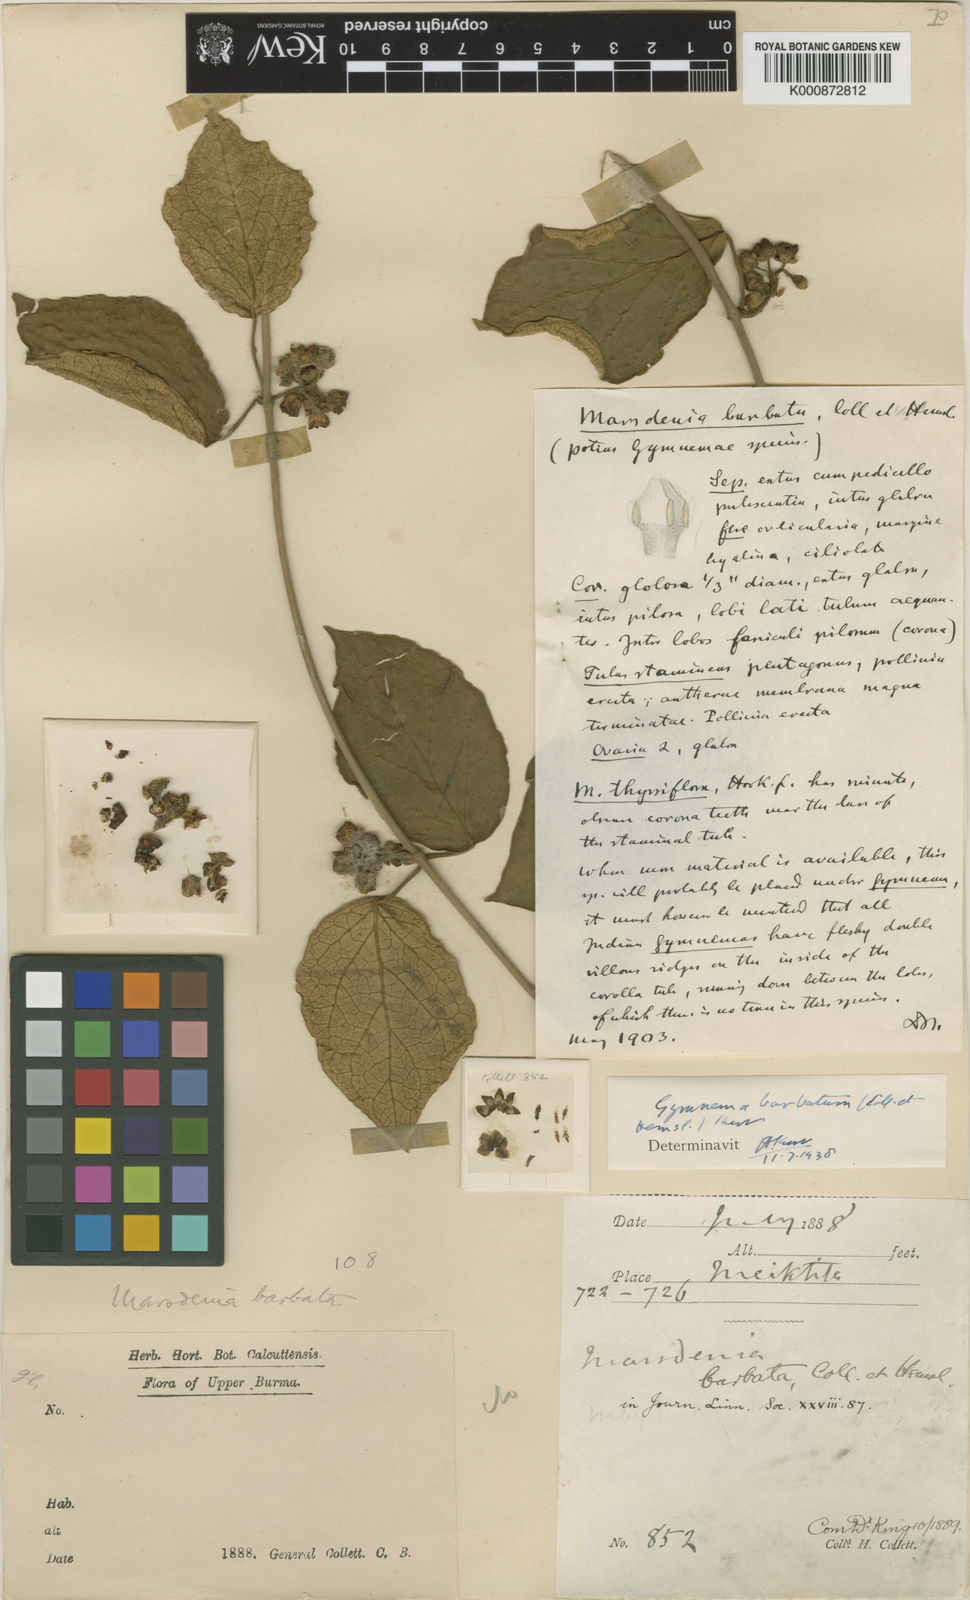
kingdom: Plantae
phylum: Tracheophyta
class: Magnoliopsida
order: Gentianales
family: Apocynaceae
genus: Gymnema
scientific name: Gymnema barbatum
